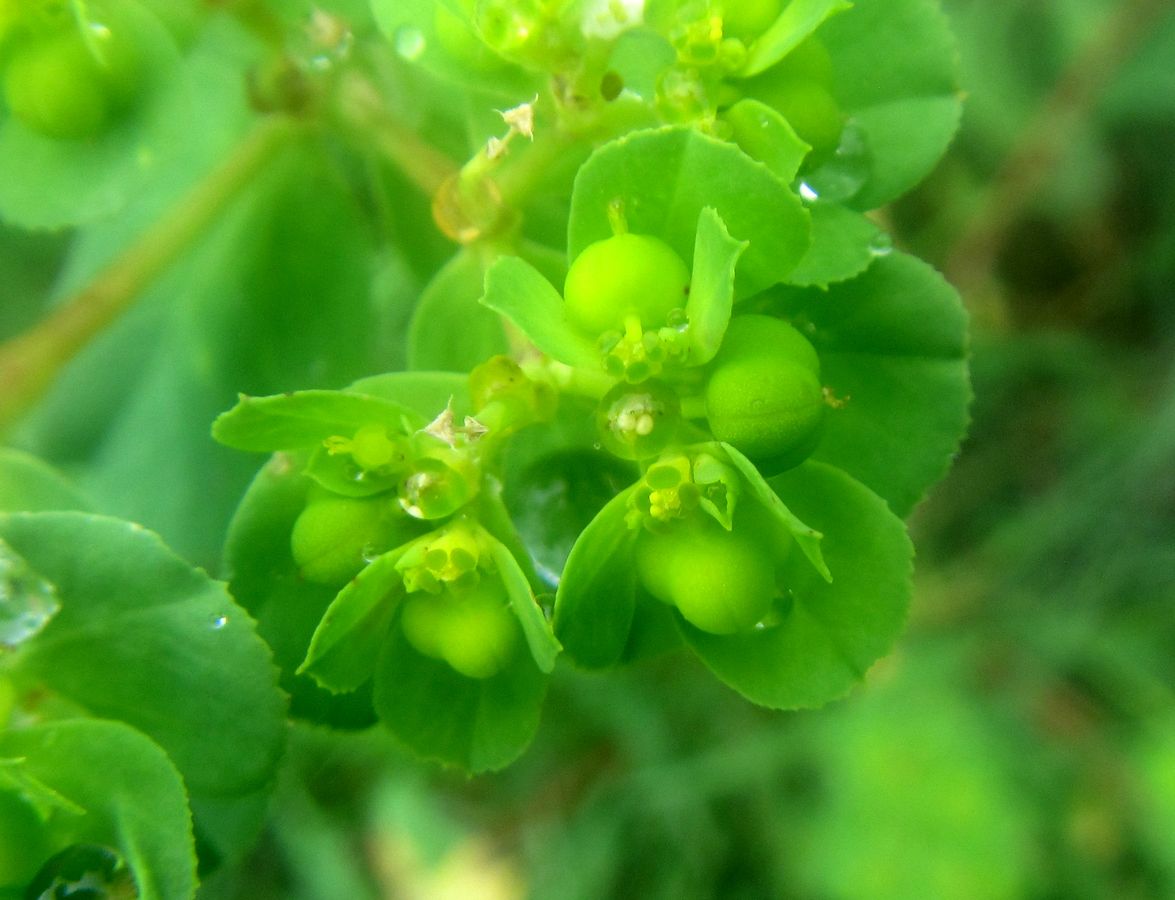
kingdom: Plantae
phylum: Tracheophyta
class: Magnoliopsida
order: Malpighiales
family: Euphorbiaceae
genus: Euphorbia
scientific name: Euphorbia
